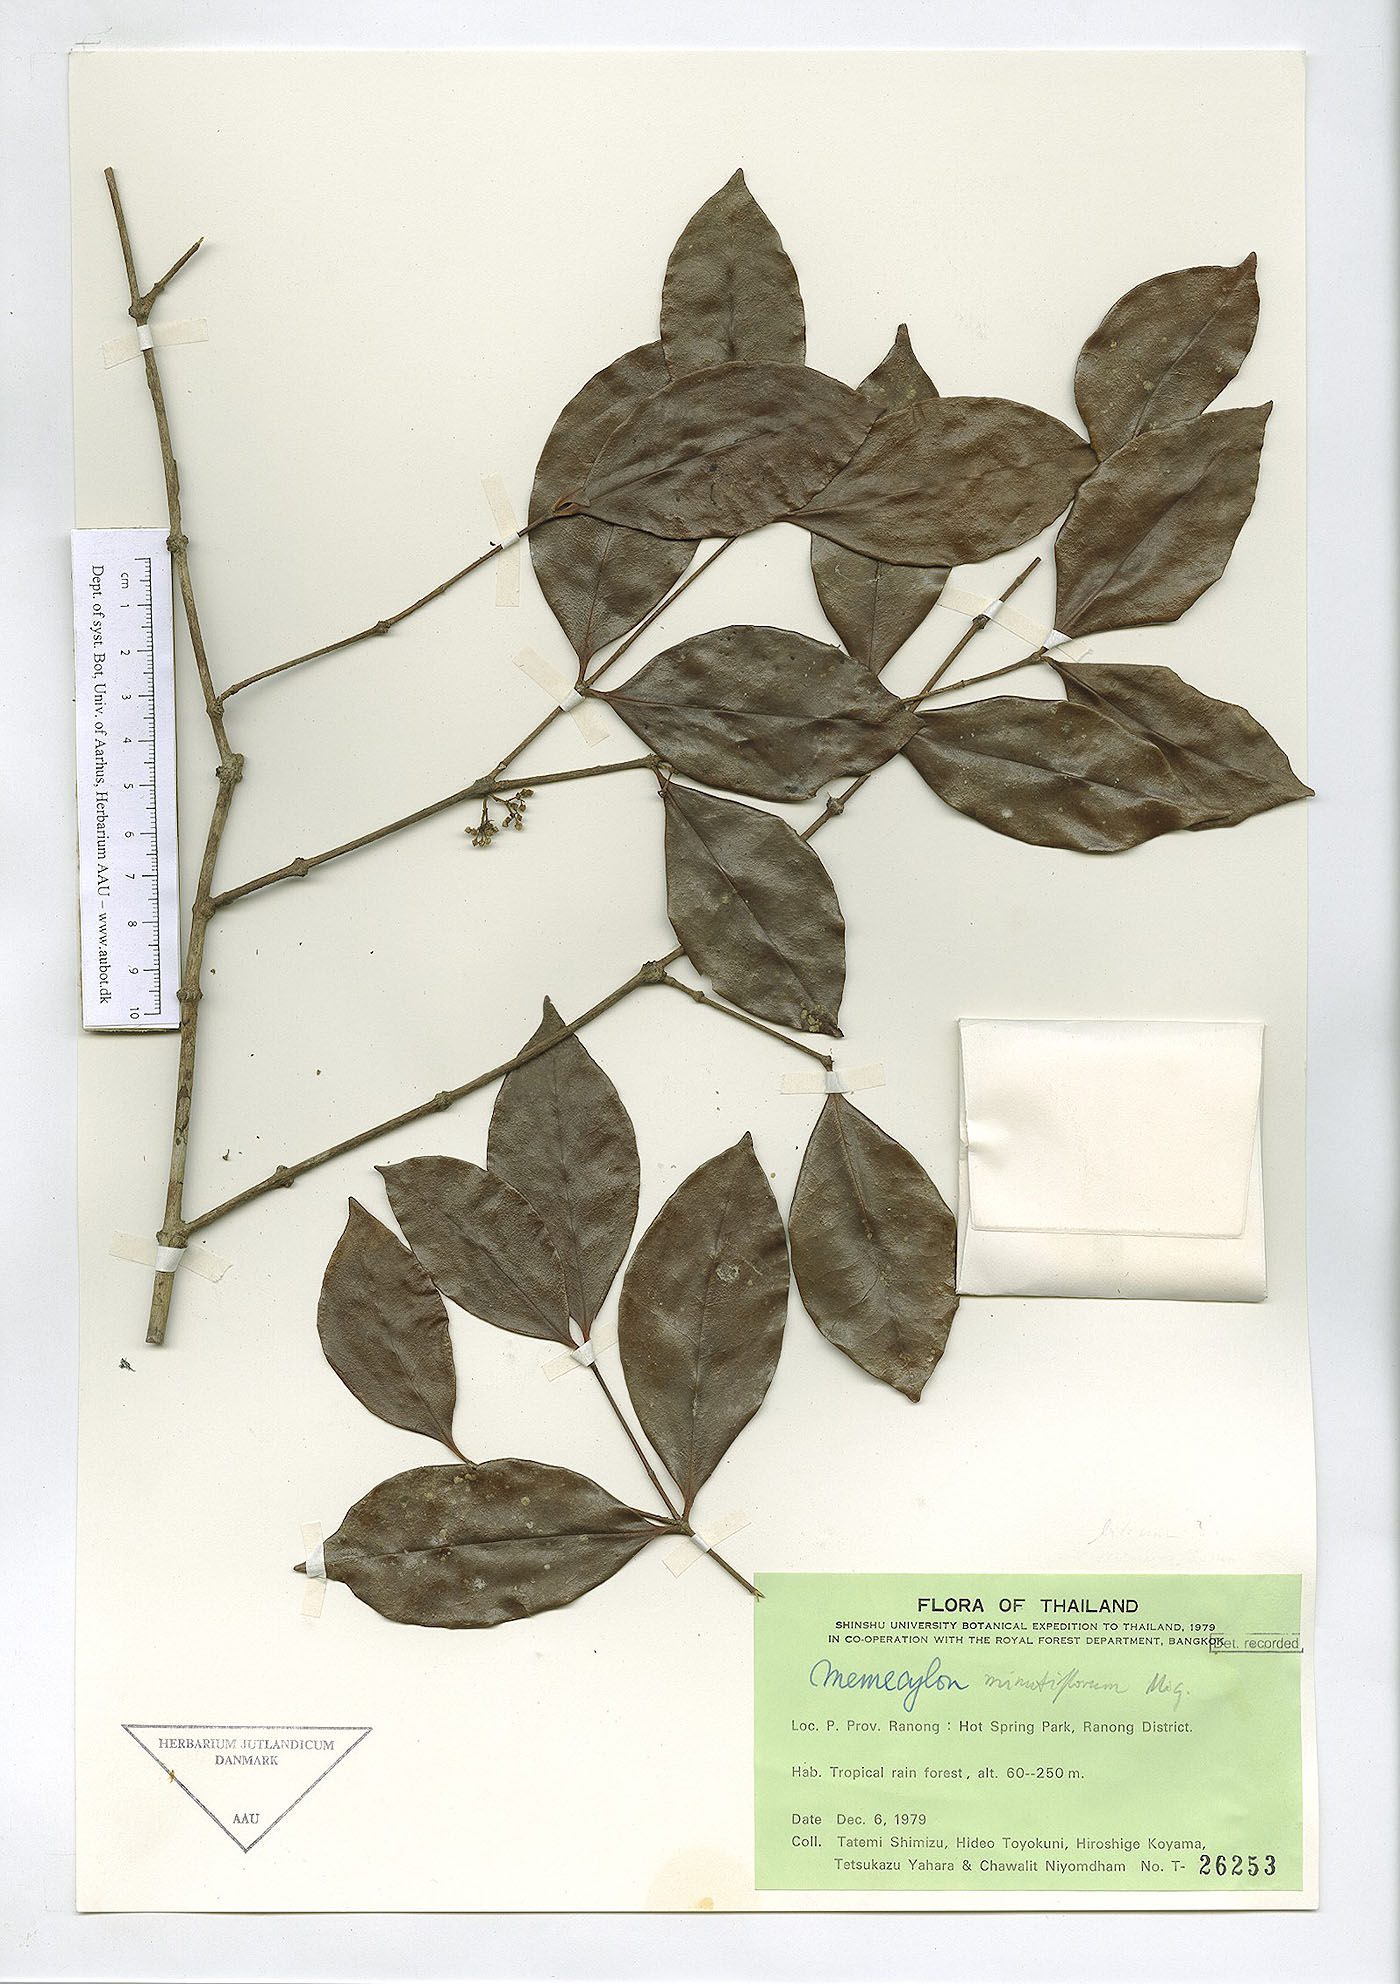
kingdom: Plantae
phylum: Tracheophyta
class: Magnoliopsida
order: Myrtales
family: Melastomataceae
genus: Memecylon
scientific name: Memecylon minutiflorum
